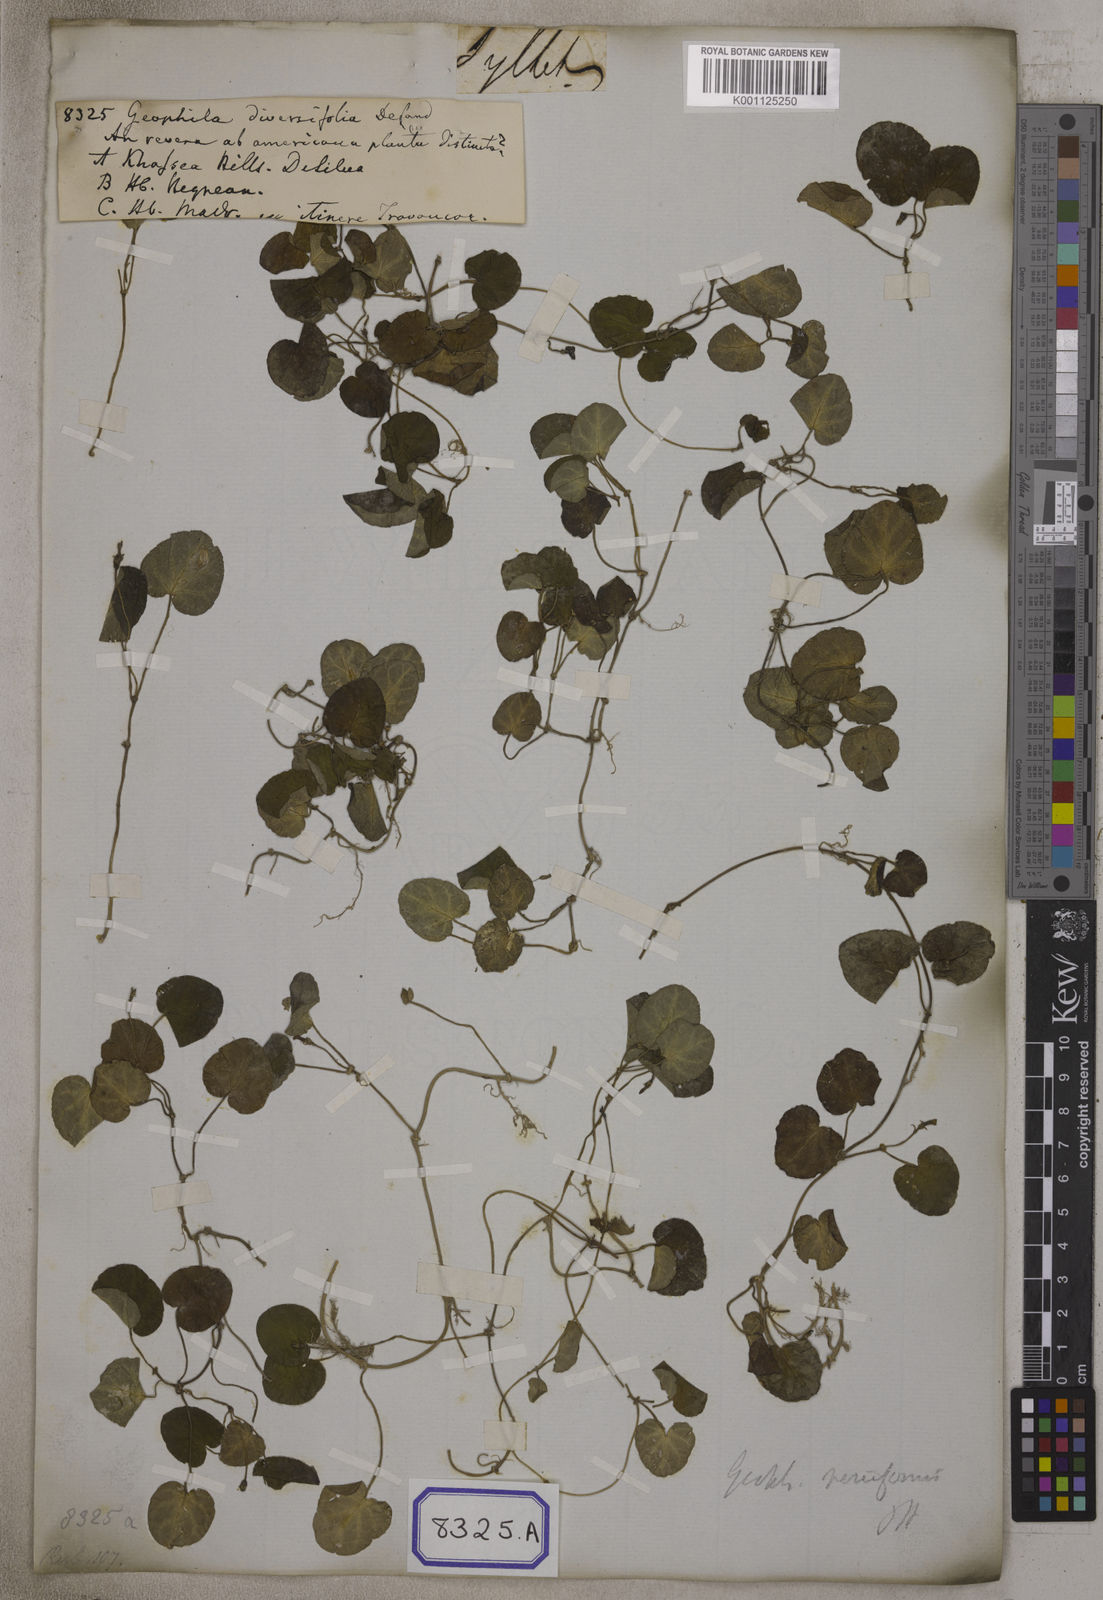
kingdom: Plantae
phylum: Tracheophyta
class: Magnoliopsida
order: Gentianales
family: Rubiaceae
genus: Geophila
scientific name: Geophila herbacea
